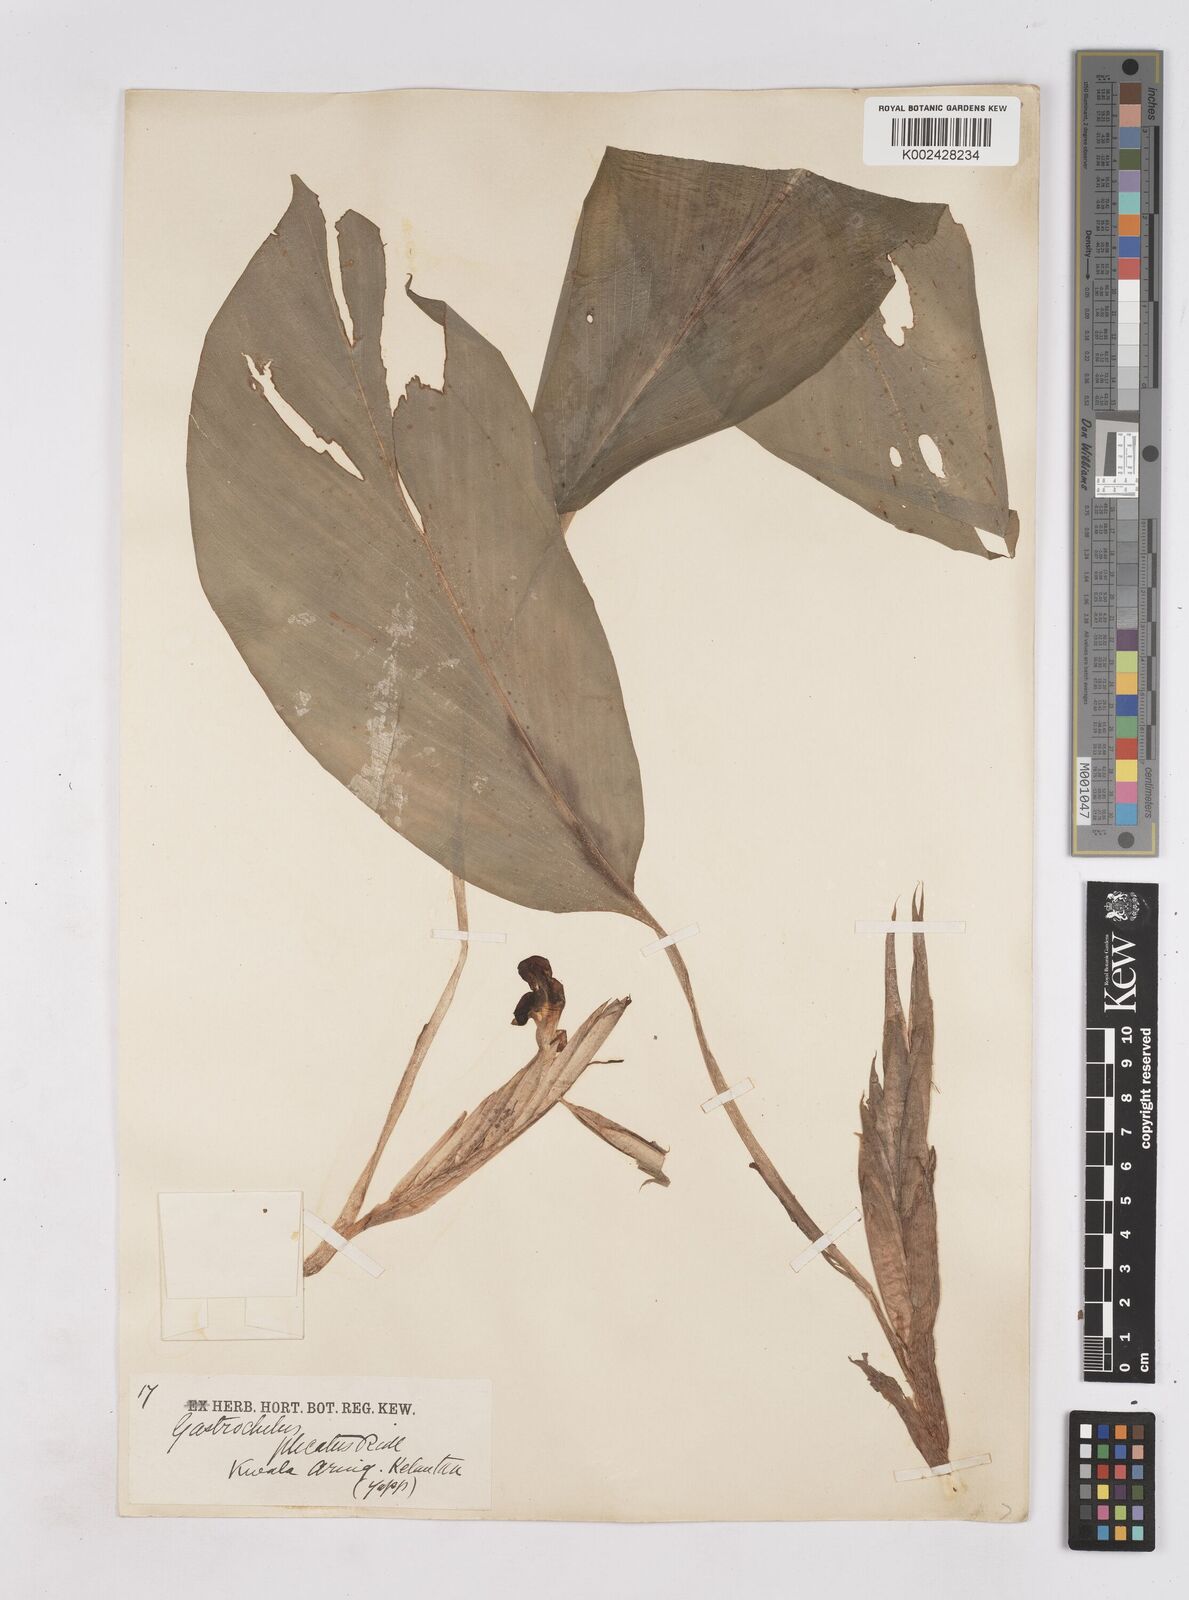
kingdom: Plantae
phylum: Tracheophyta
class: Liliopsida
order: Zingiberales
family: Zingiberaceae
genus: Boesenbergia
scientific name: Boesenbergia plicata
